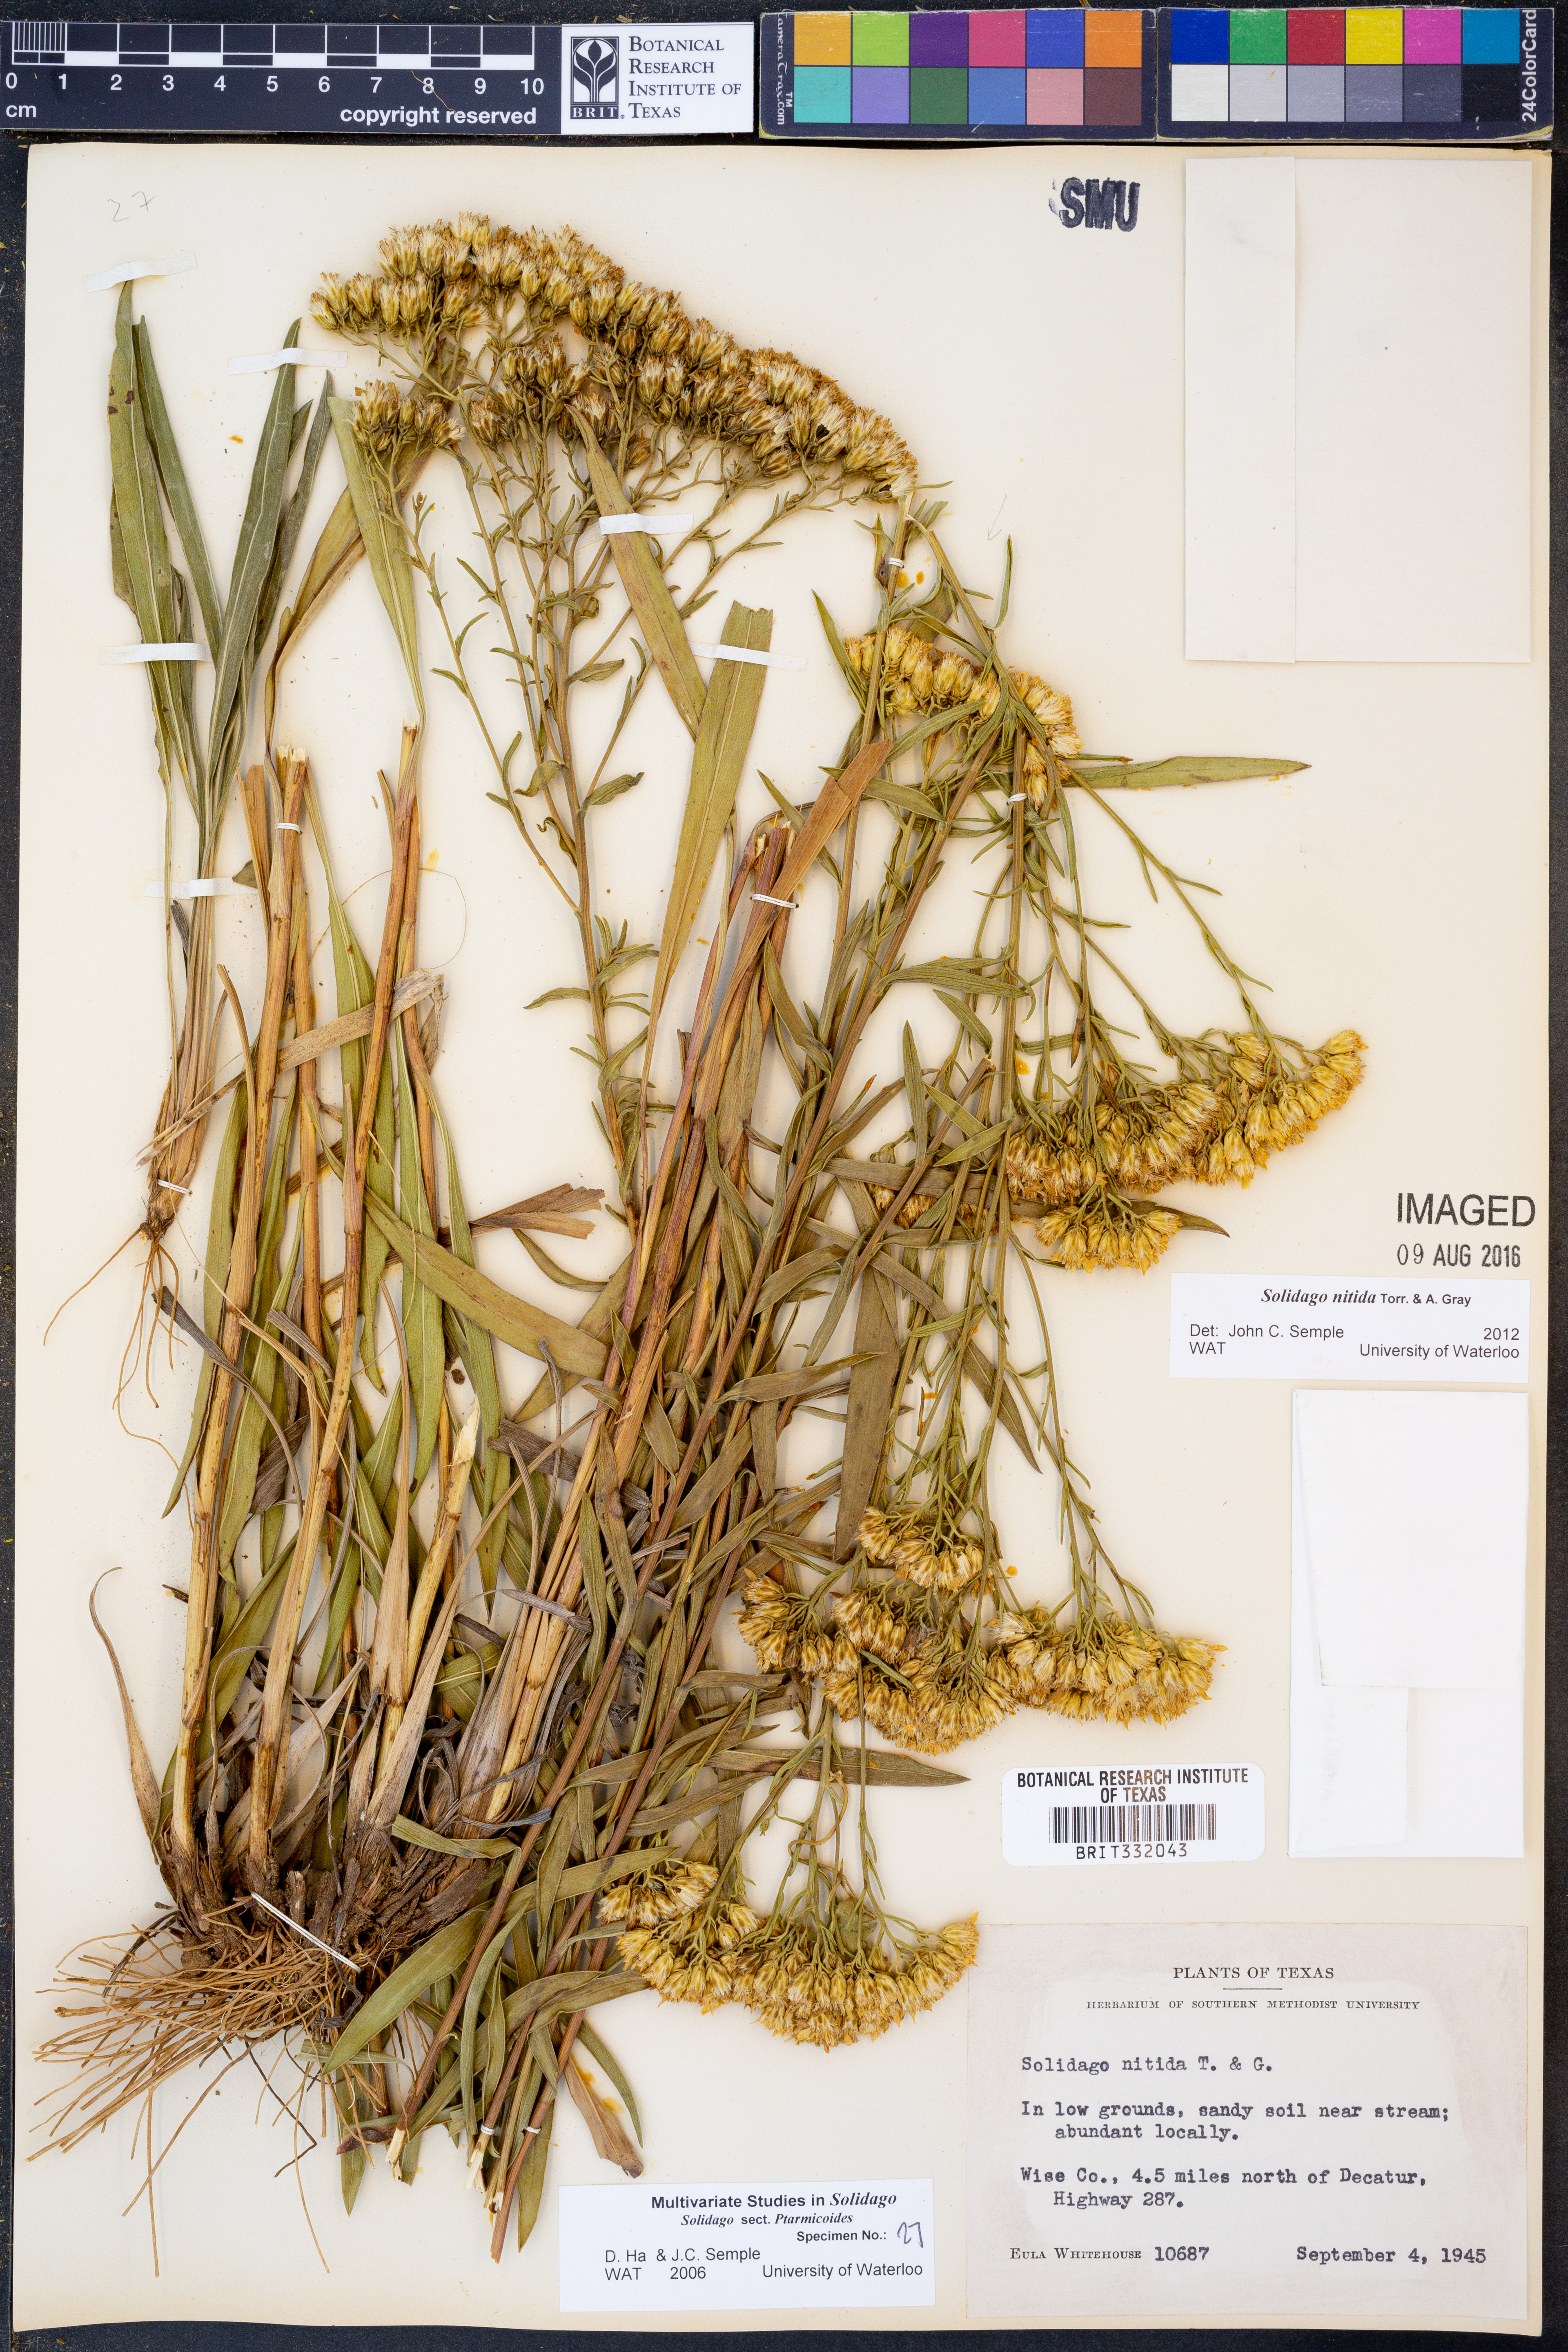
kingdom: Plantae
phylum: Tracheophyta
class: Magnoliopsida
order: Asterales
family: Asteraceae
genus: Solidago
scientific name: Solidago nitida
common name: Shiny goldenrod
